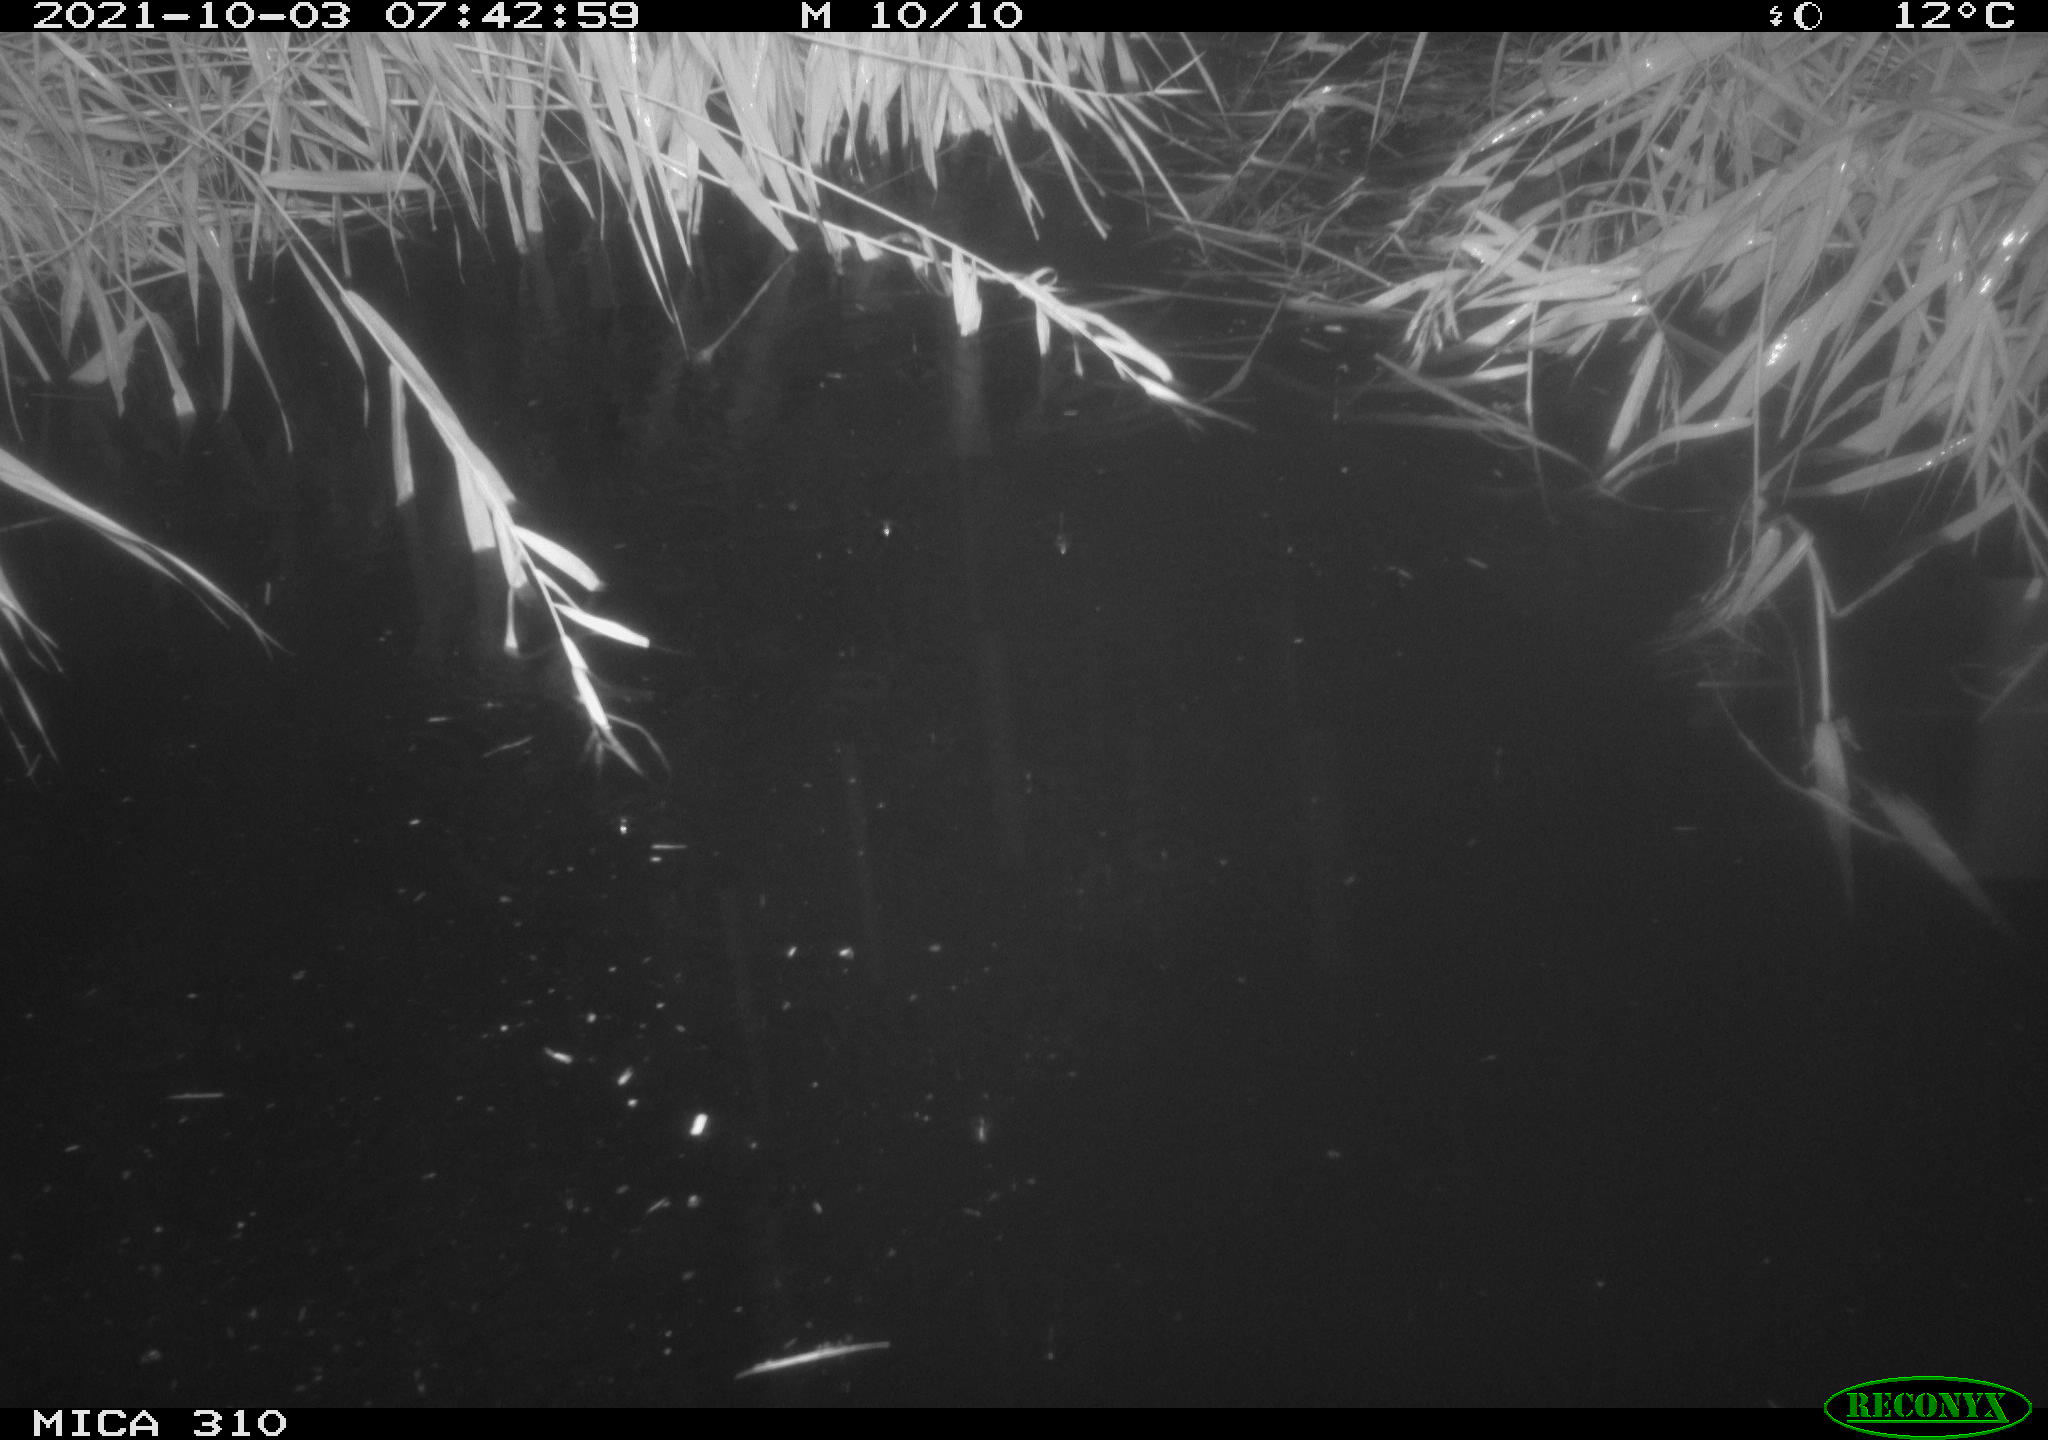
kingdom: Animalia
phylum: Chordata
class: Aves
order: Gruiformes
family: Rallidae
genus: Gallinula
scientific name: Gallinula chloropus
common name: Common moorhen
